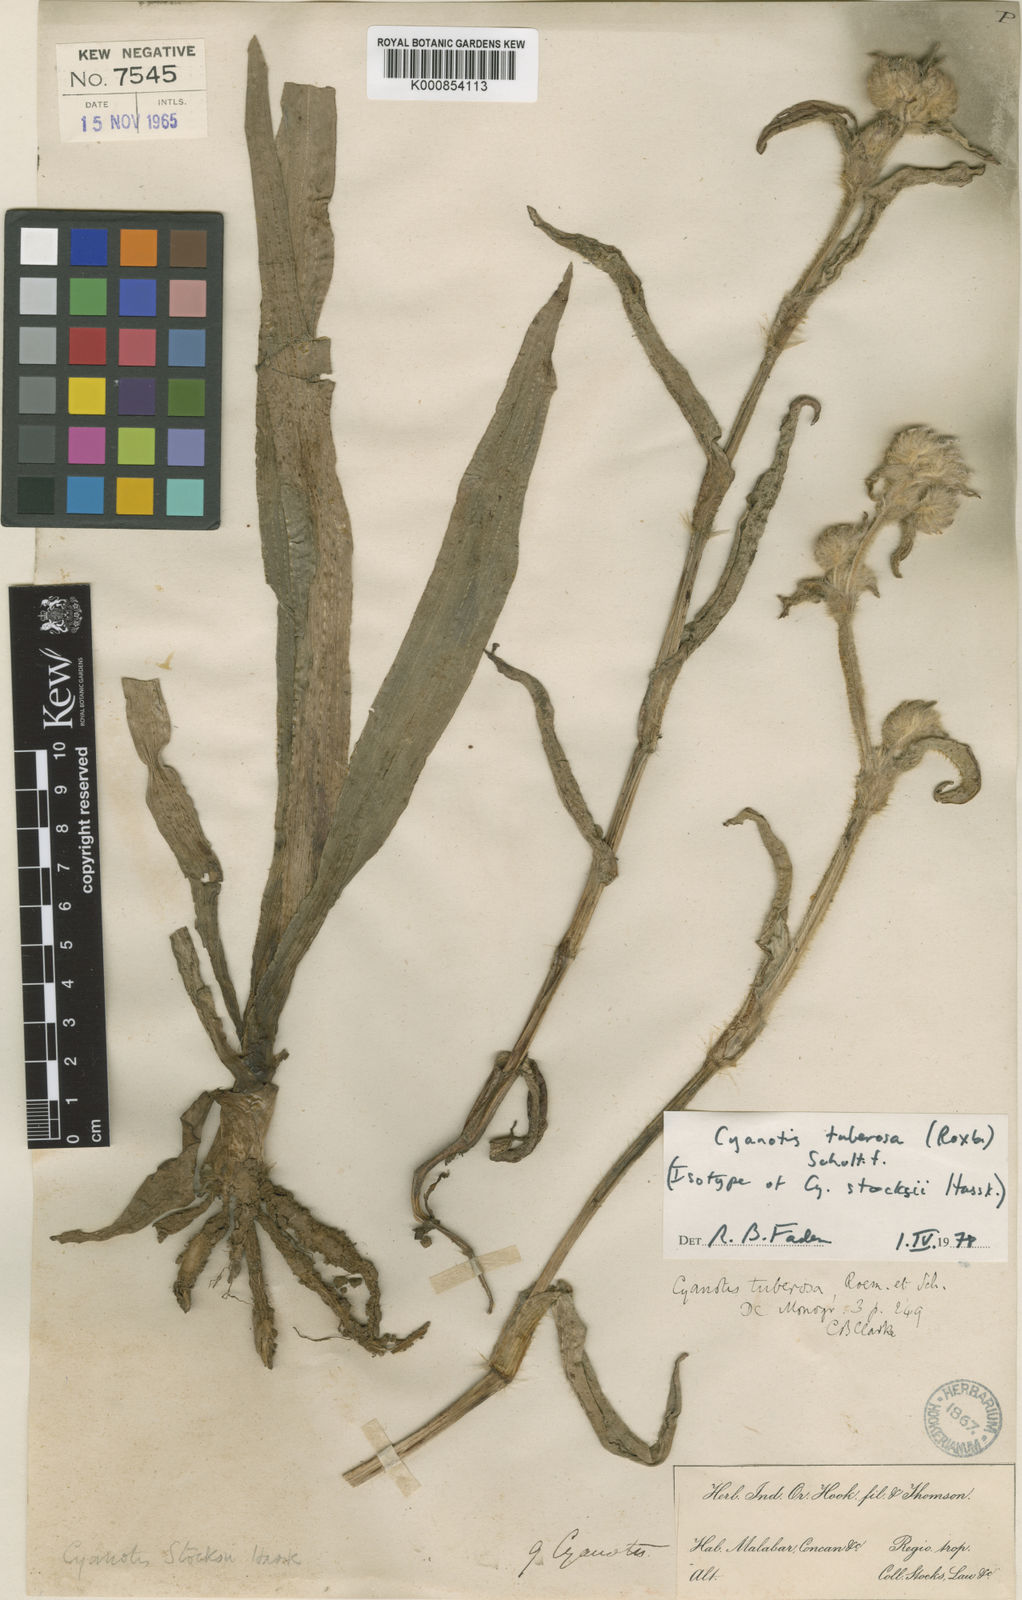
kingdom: Plantae
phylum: Tracheophyta
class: Liliopsida
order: Commelinales
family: Commelinaceae
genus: Cyanotis
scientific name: Cyanotis tuberosa
